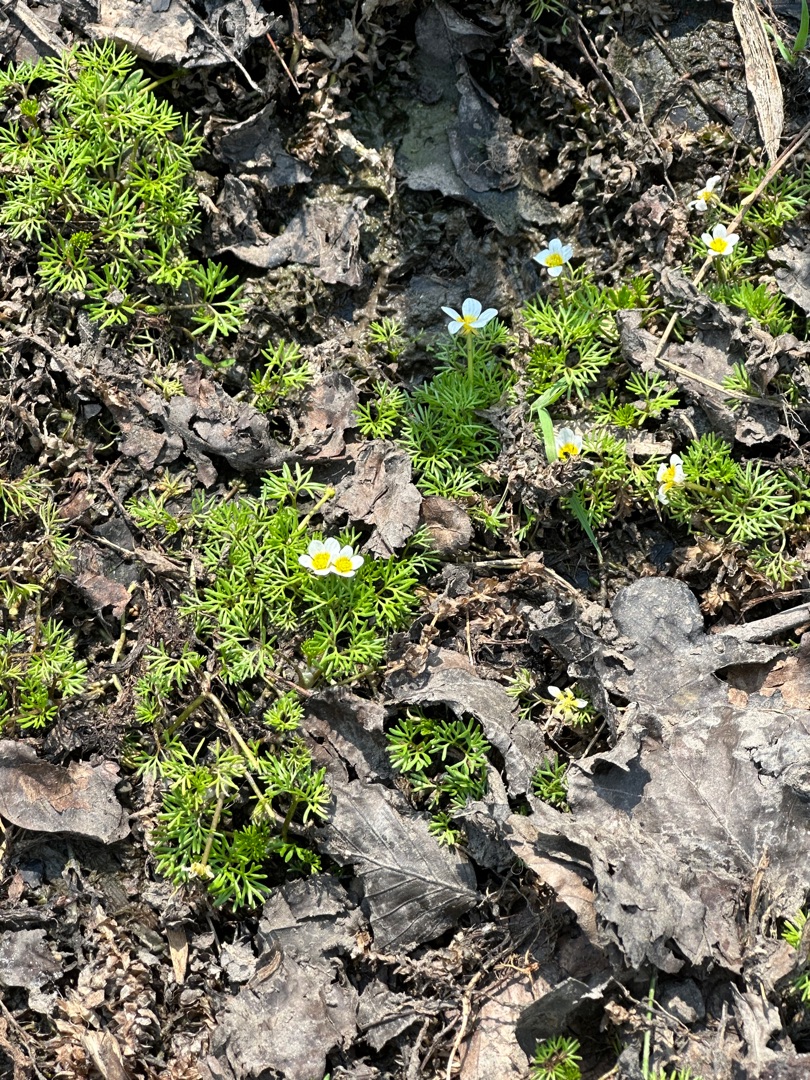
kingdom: Plantae
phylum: Tracheophyta
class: Magnoliopsida
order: Ranunculales
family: Ranunculaceae
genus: Ranunculus
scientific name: Ranunculus aquatilis
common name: Almindelig vandranunkel
